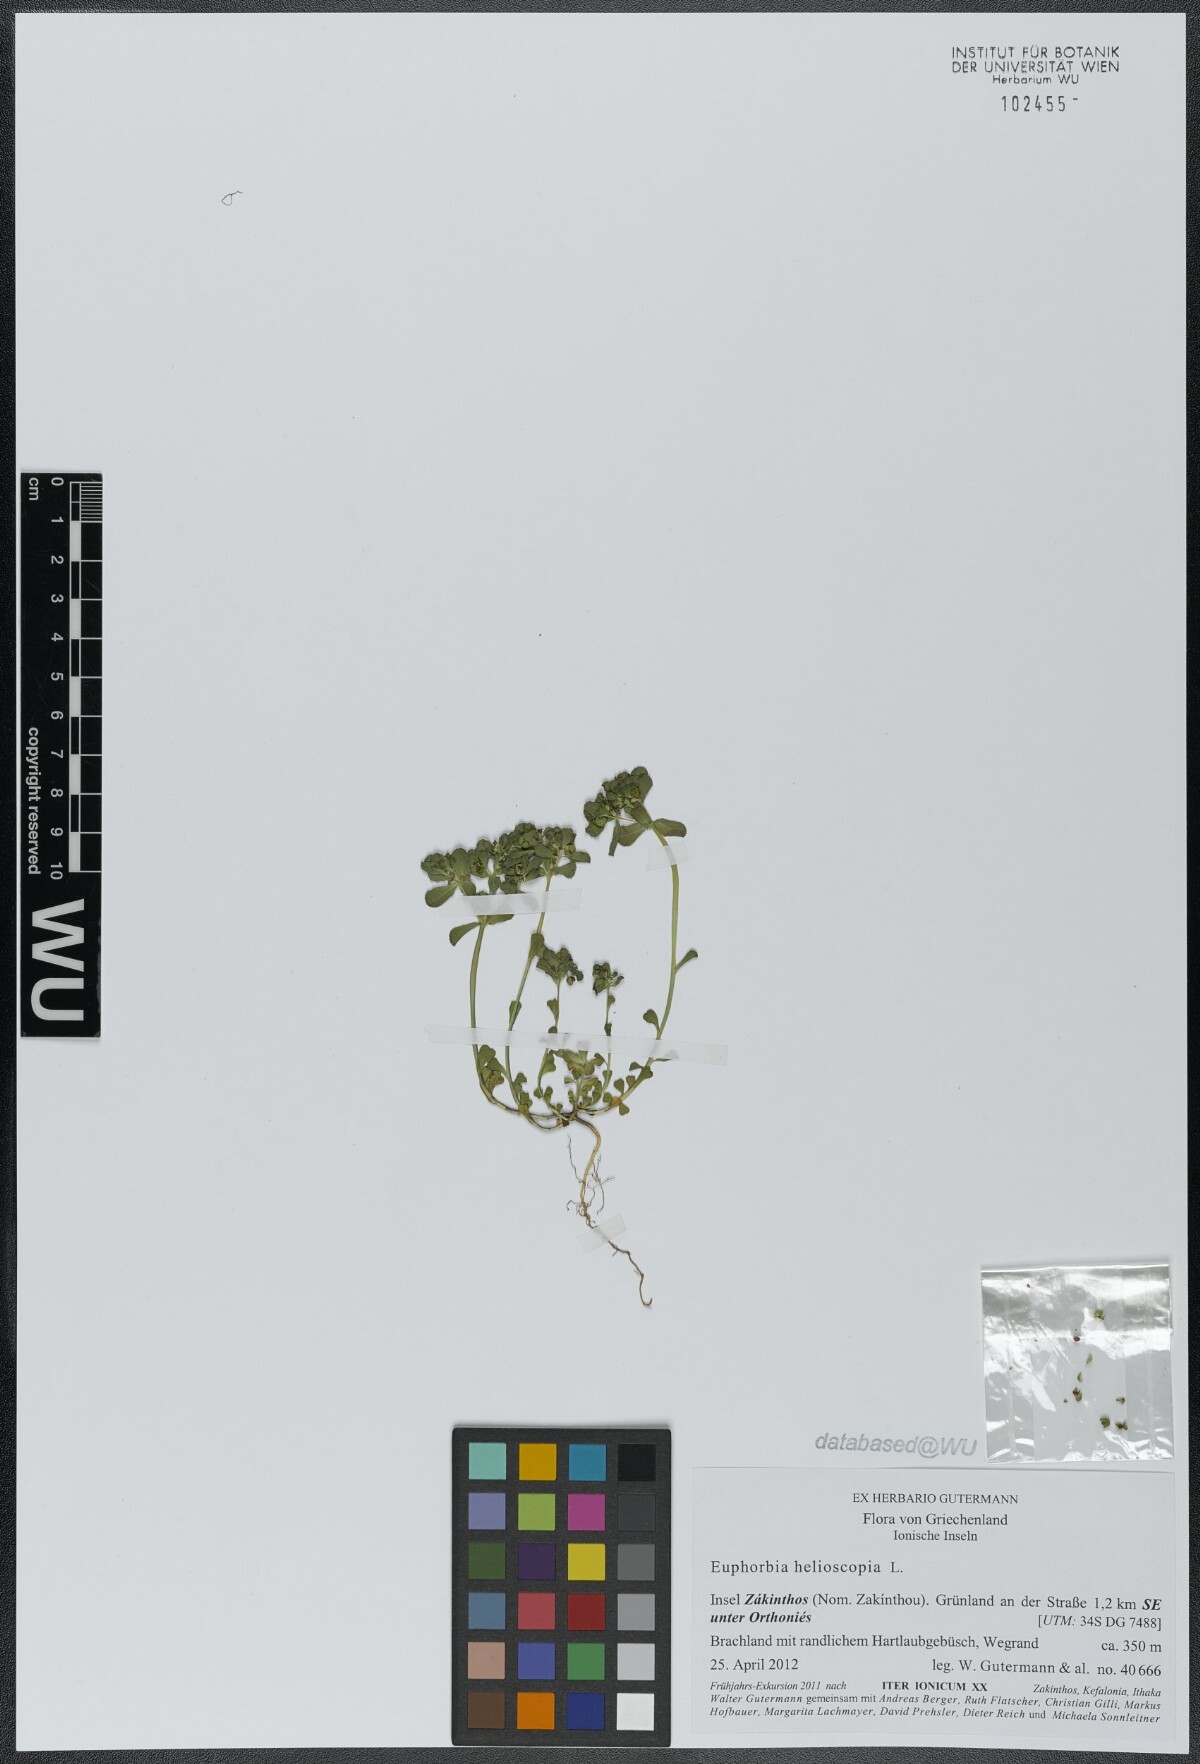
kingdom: Plantae
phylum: Tracheophyta
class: Magnoliopsida
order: Malpighiales
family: Euphorbiaceae
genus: Euphorbia
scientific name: Euphorbia helioscopia
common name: Sun spurge
